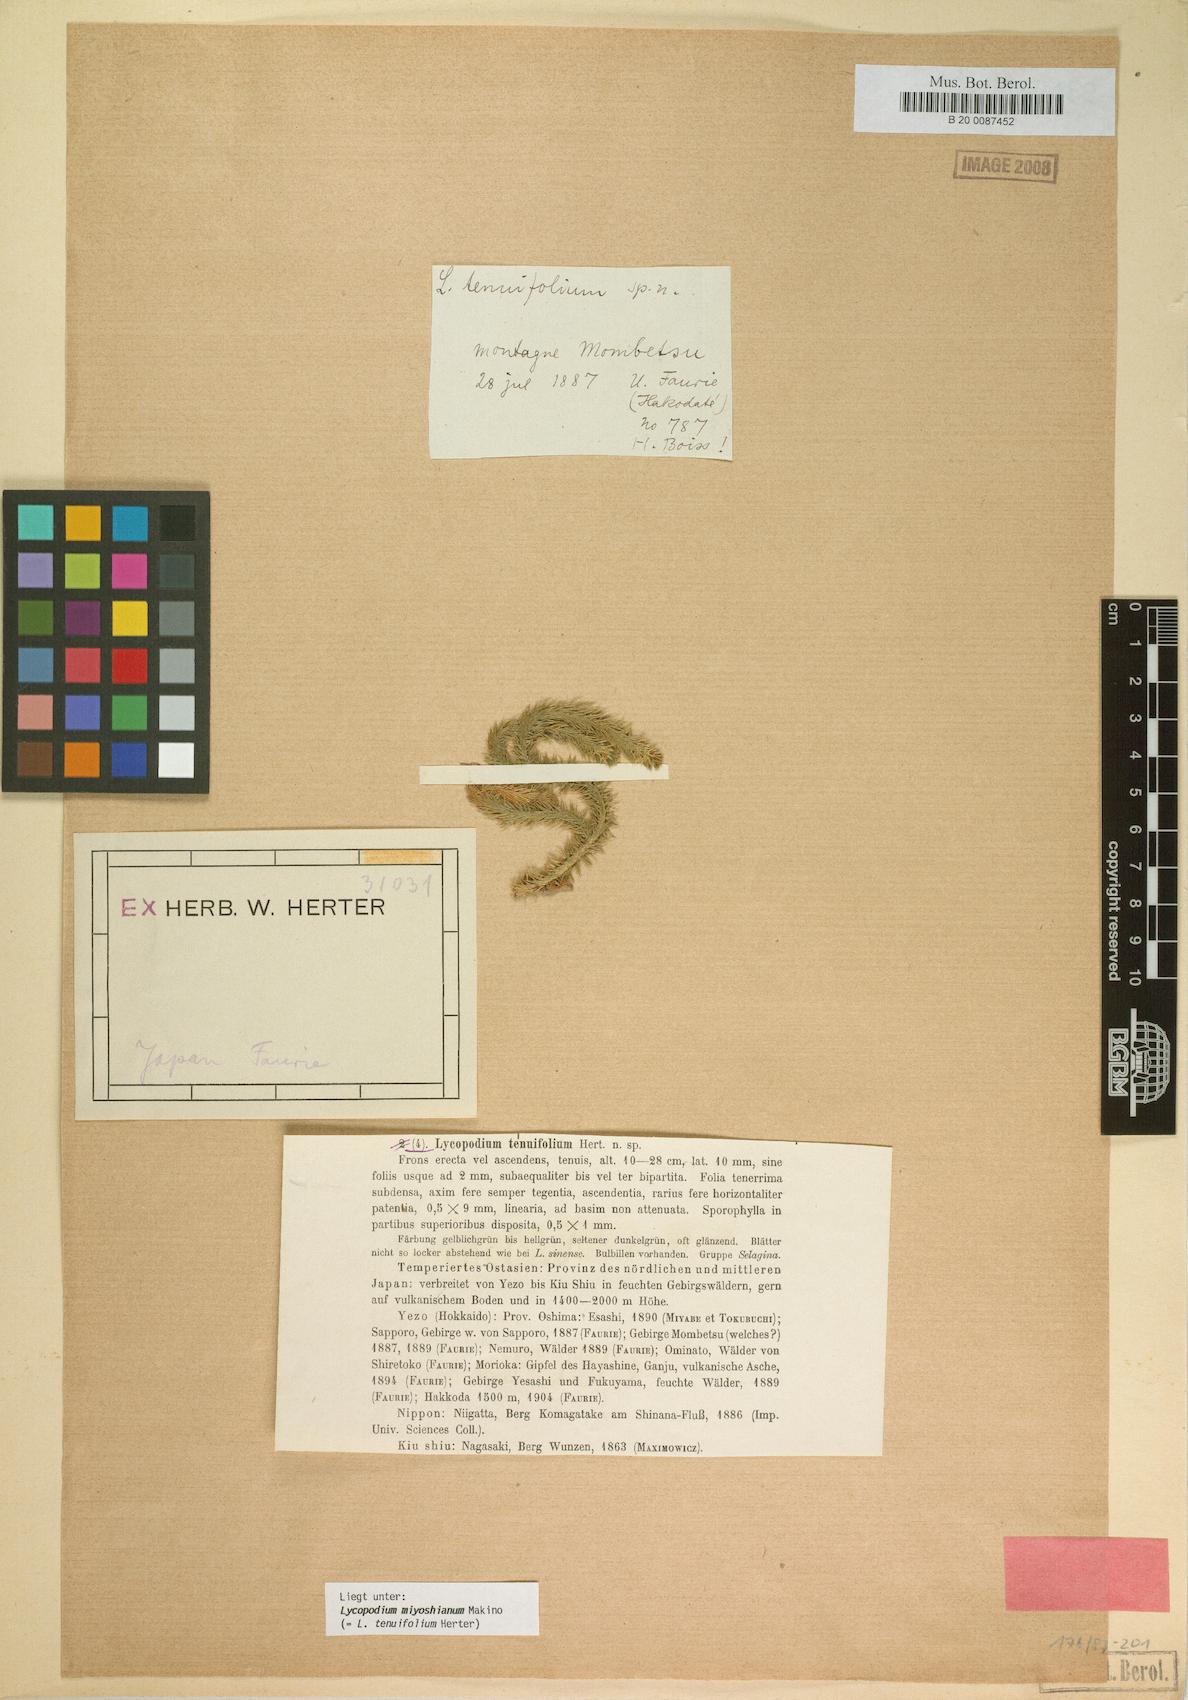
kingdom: Plantae
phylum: Tracheophyta
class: Lycopodiopsida
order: Lycopodiales
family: Lycopodiaceae
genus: Huperzia
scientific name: Huperzia miyoshiana
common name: Chinese clubmoss
